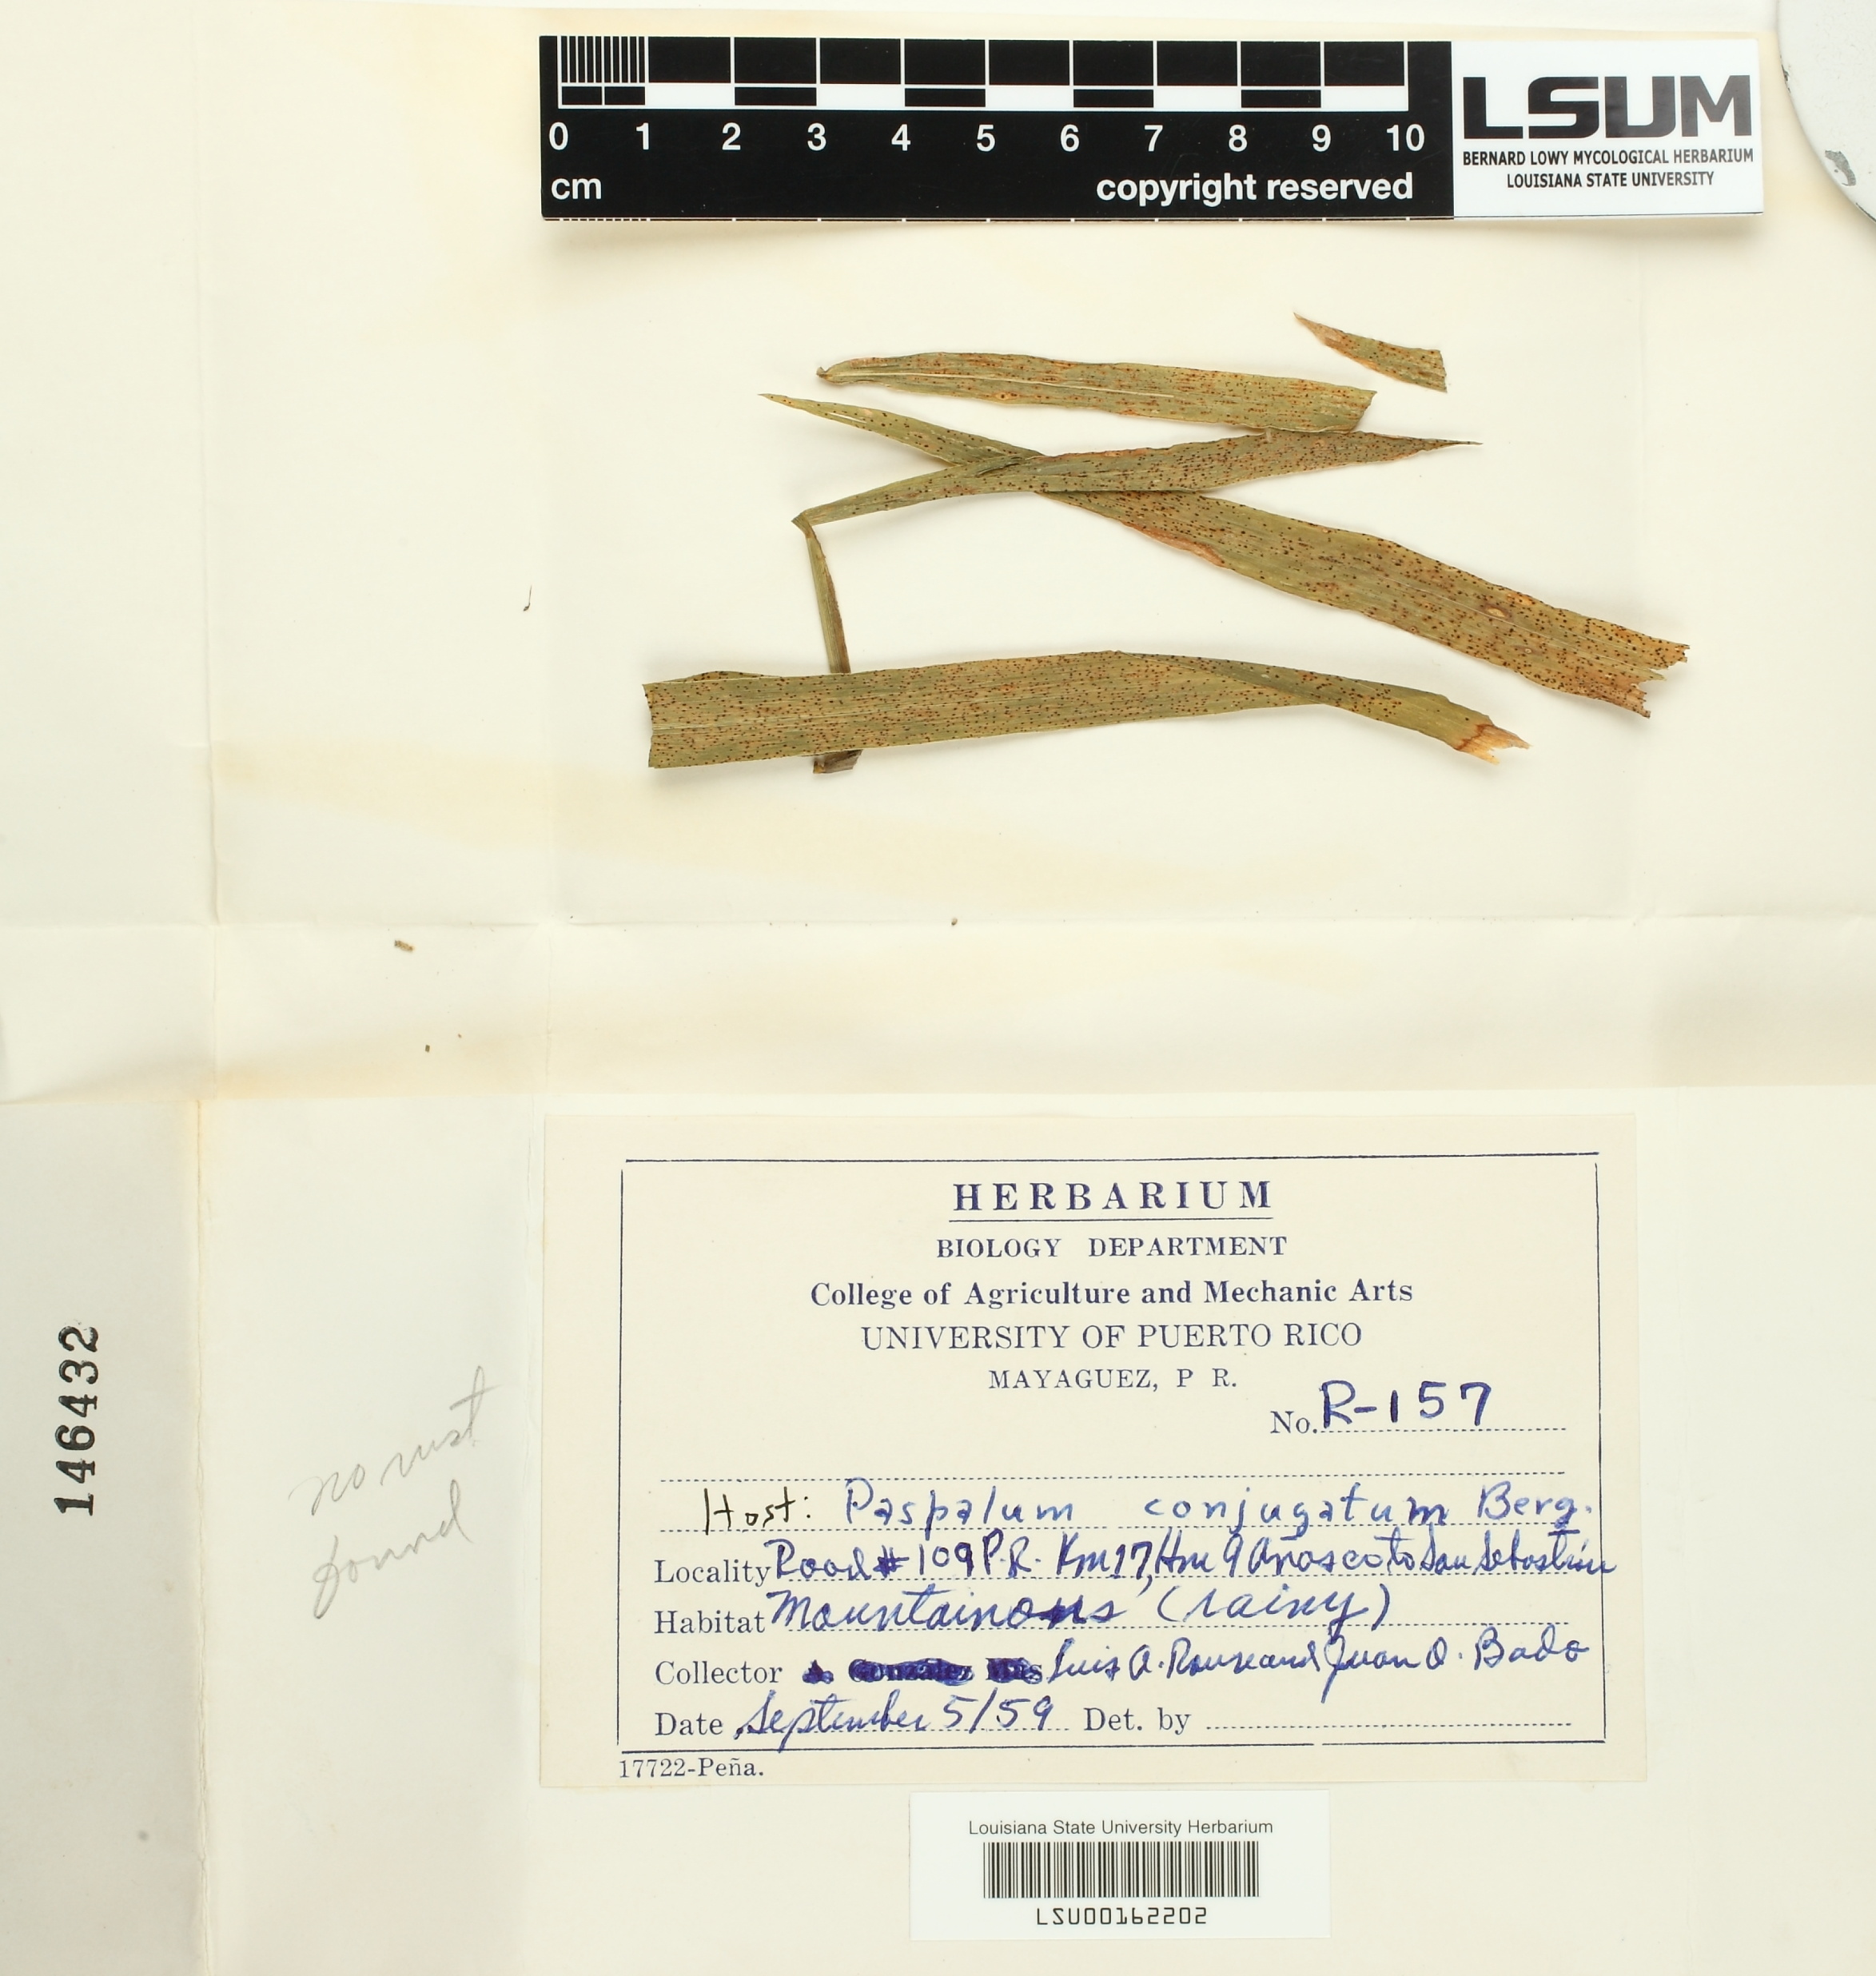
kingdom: Fungi
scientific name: Fungi
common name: Fungi
